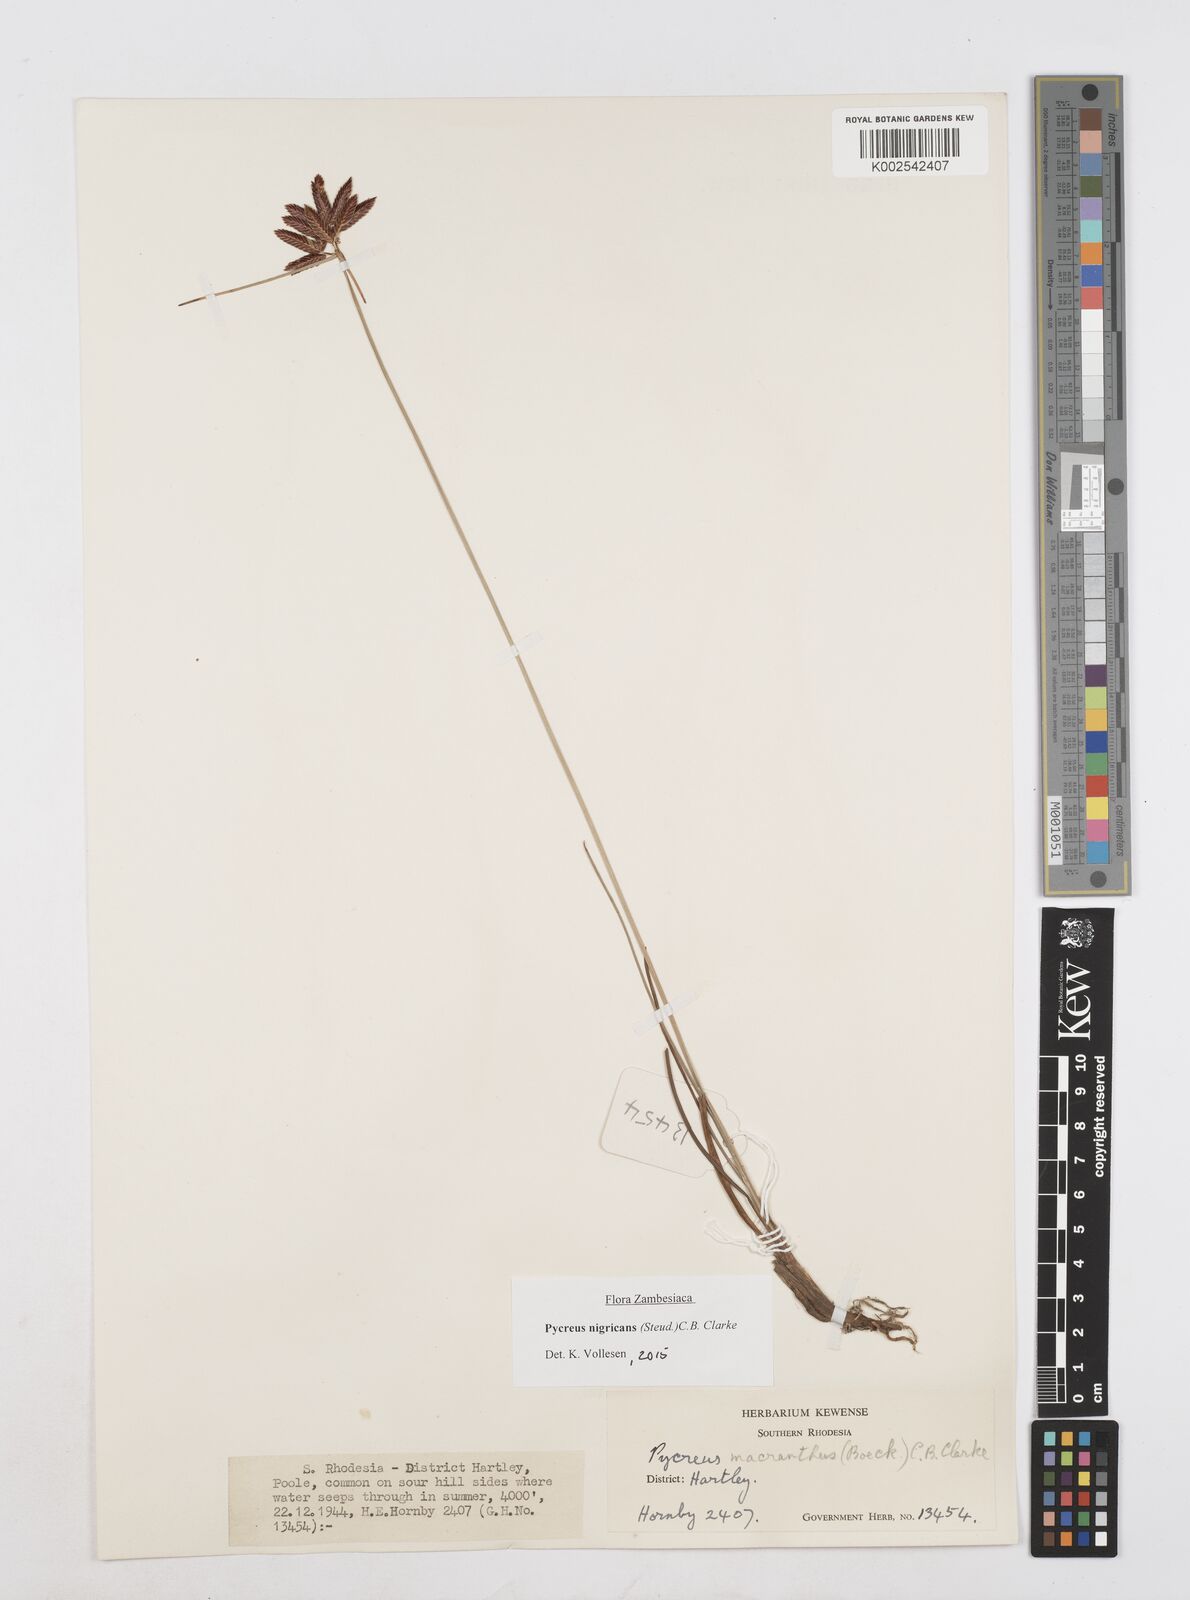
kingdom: Plantae
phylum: Tracheophyta
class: Liliopsida
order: Poales
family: Cyperaceae
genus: Cyperus
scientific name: Cyperus nigricans
